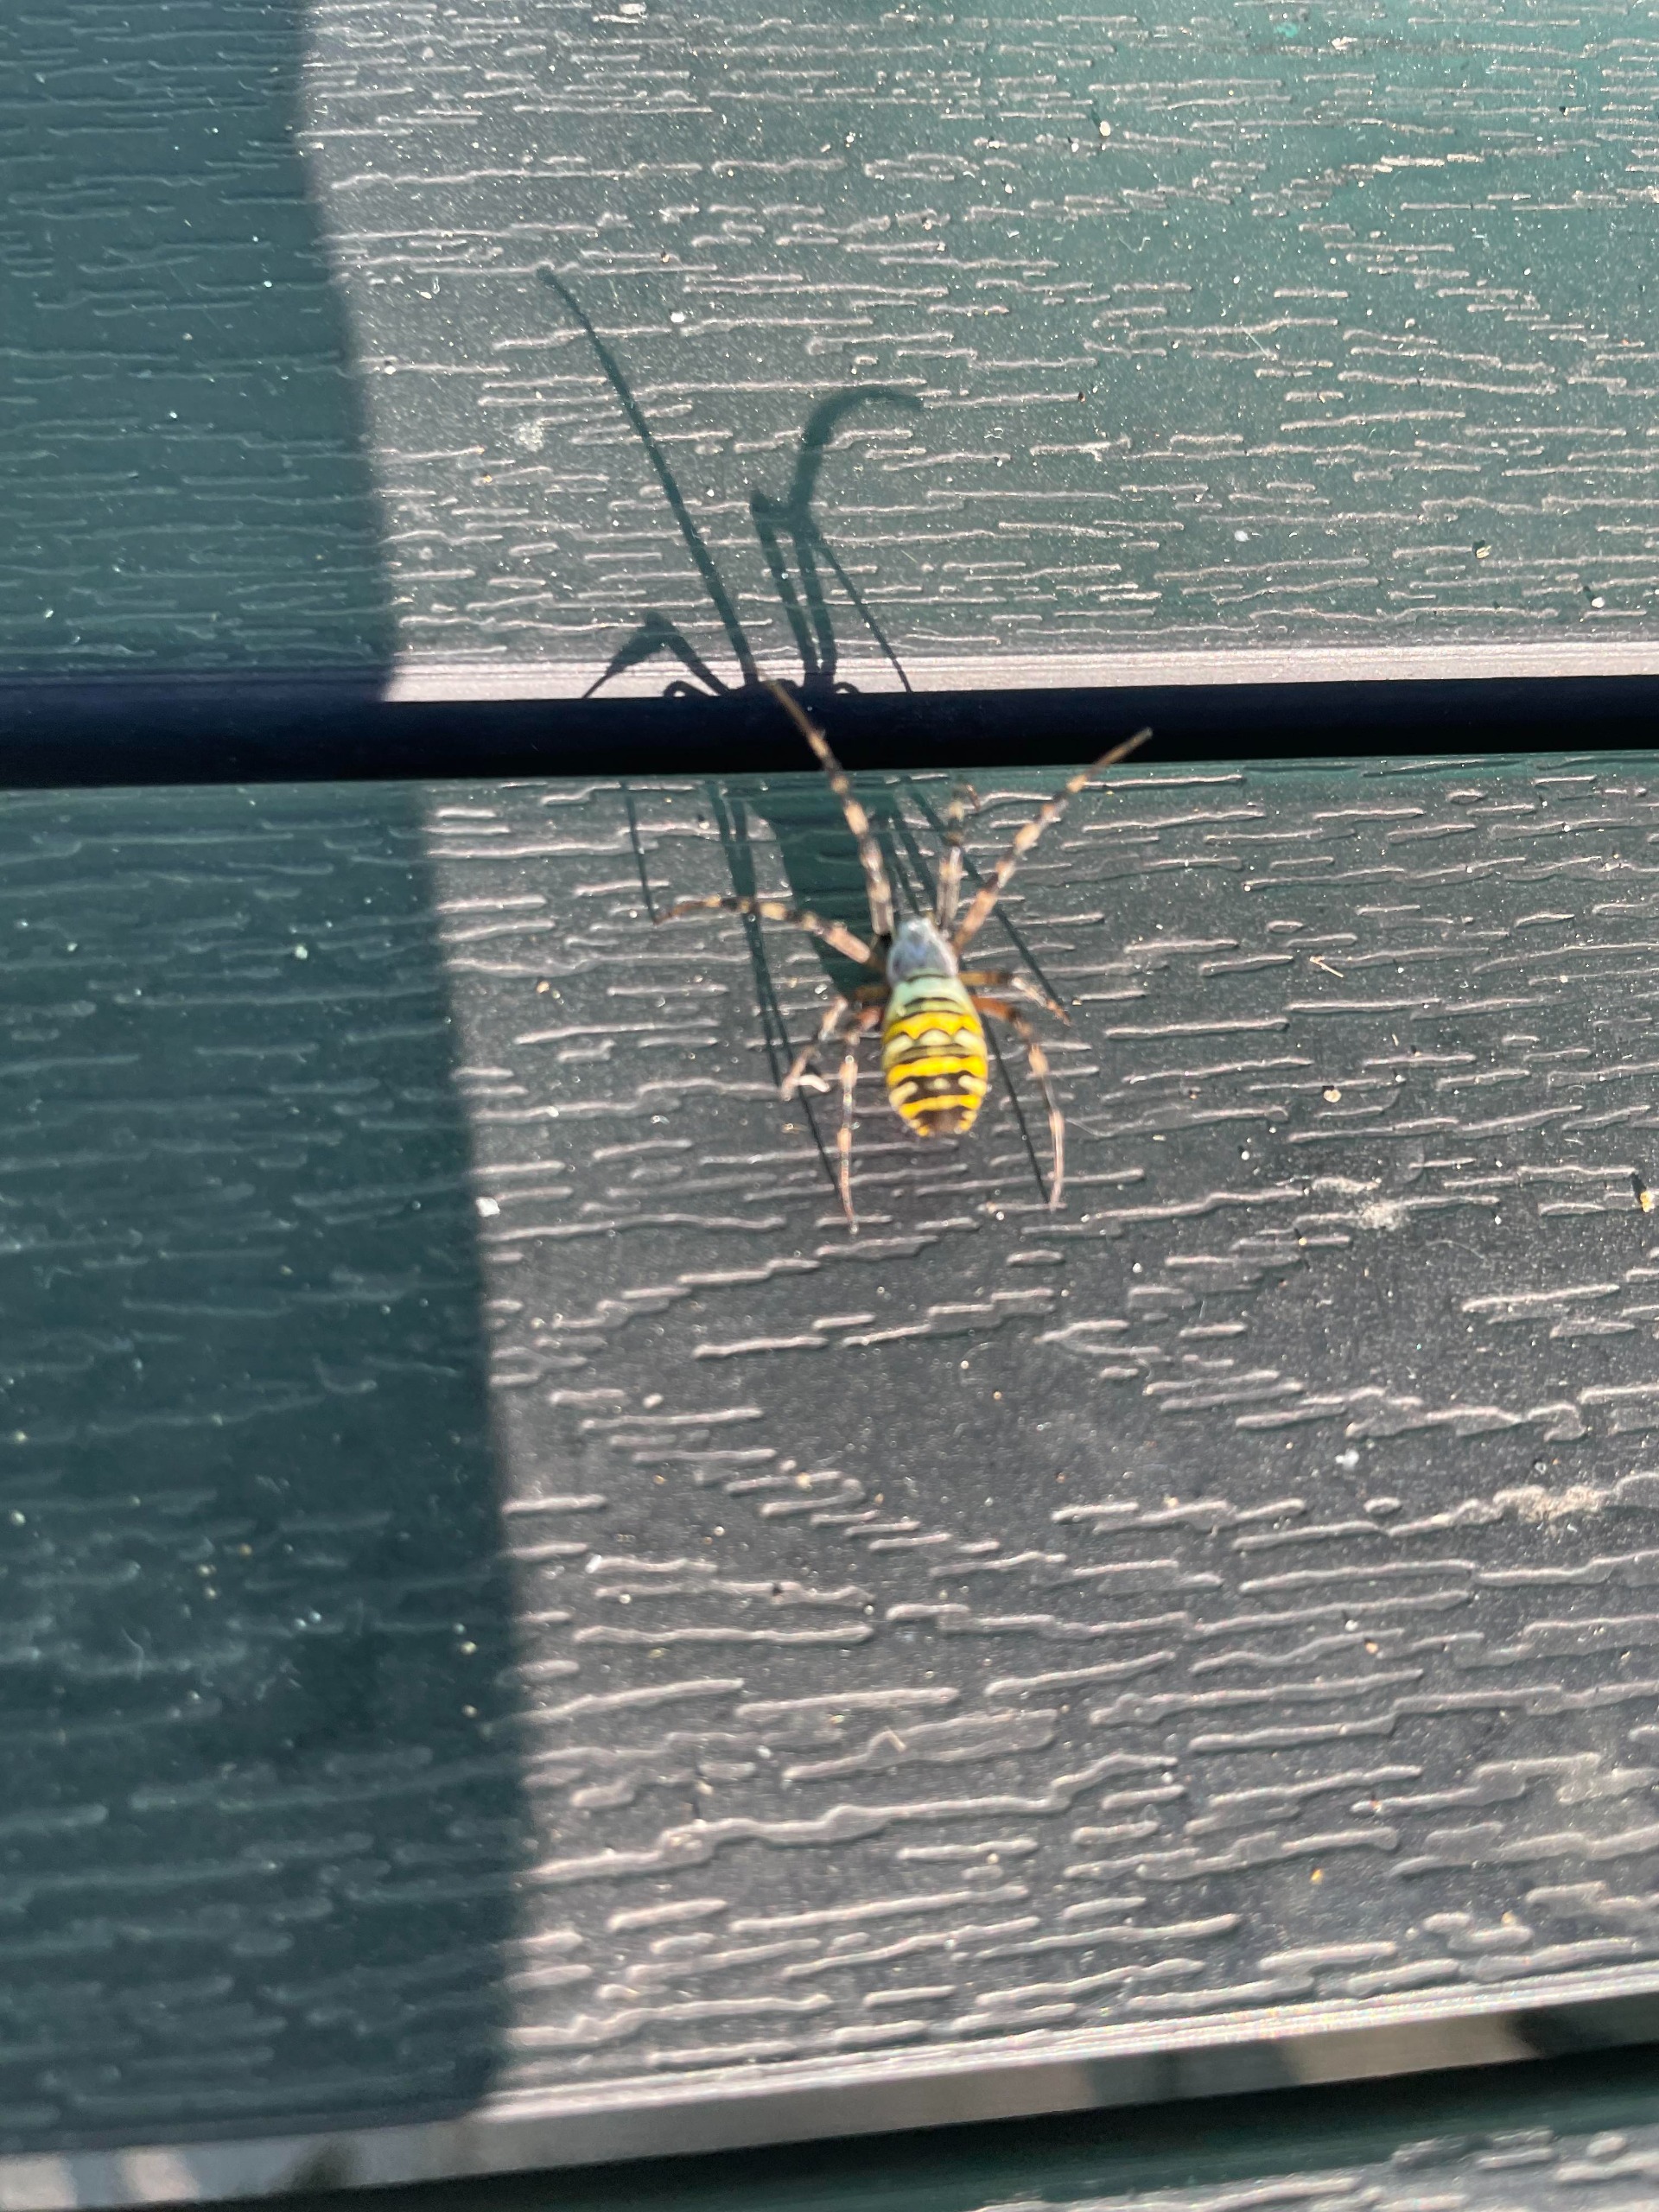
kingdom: Animalia
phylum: Arthropoda
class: Arachnida
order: Araneae
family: Araneidae
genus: Argiope
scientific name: Argiope bruennichi
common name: Hvepseedderkop
